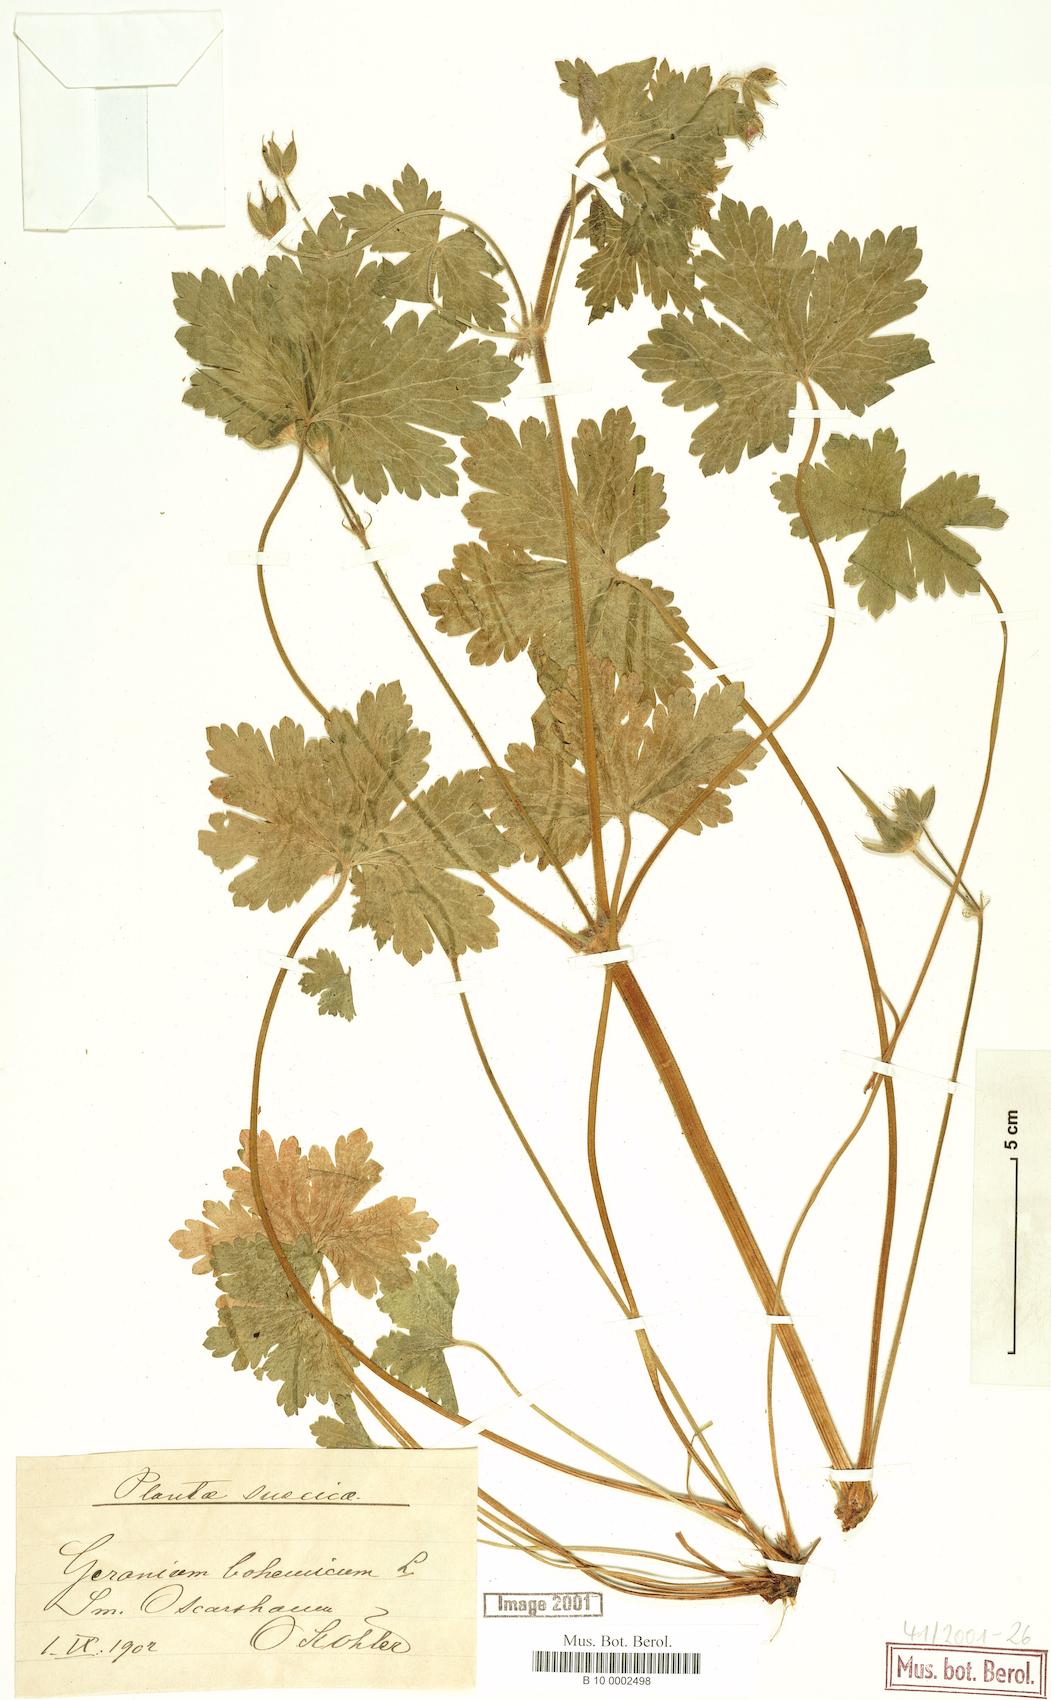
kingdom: Plantae
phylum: Tracheophyta
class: Magnoliopsida
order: Geraniales
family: Geraniaceae
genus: Geranium
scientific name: Geranium bohemicum
